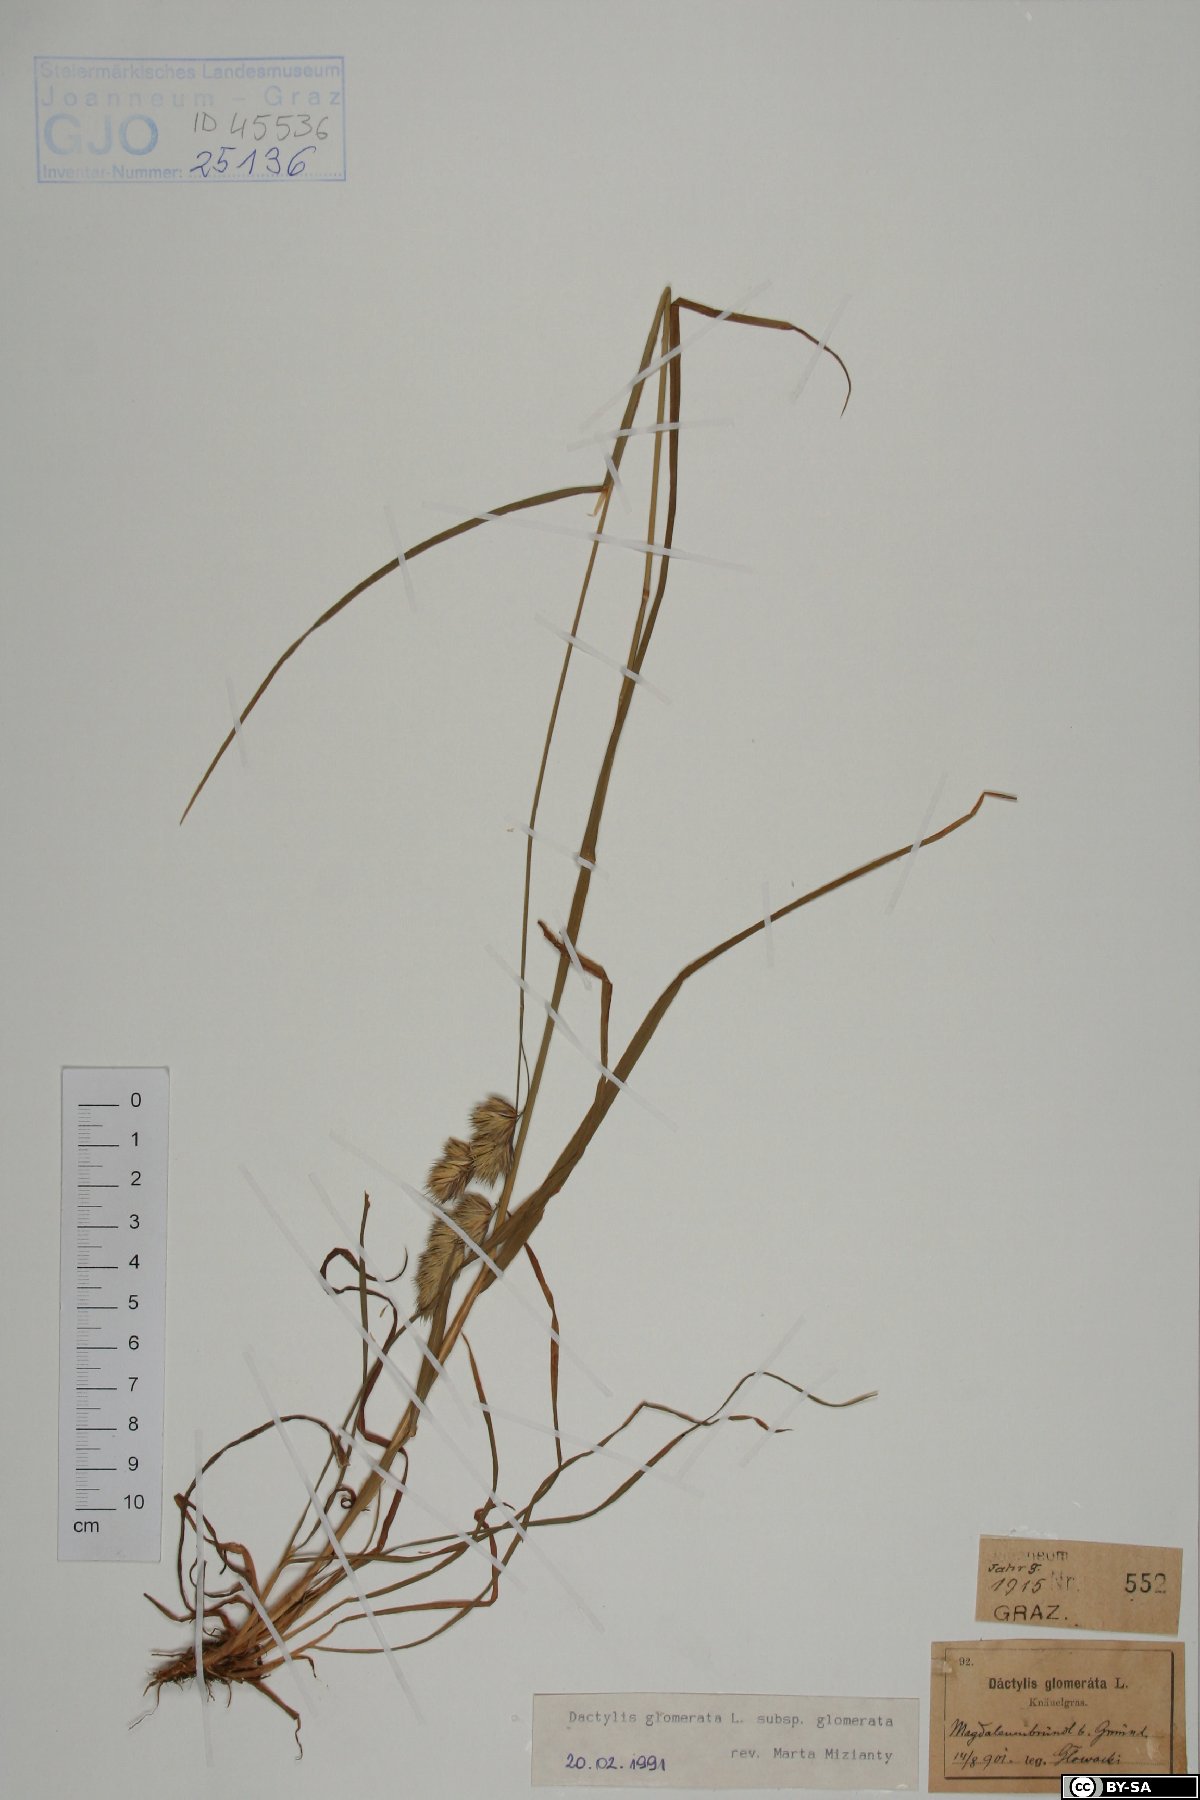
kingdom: Plantae
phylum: Tracheophyta
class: Liliopsida
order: Poales
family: Poaceae
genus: Dactylis
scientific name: Dactylis glomerata
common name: Orchardgrass
